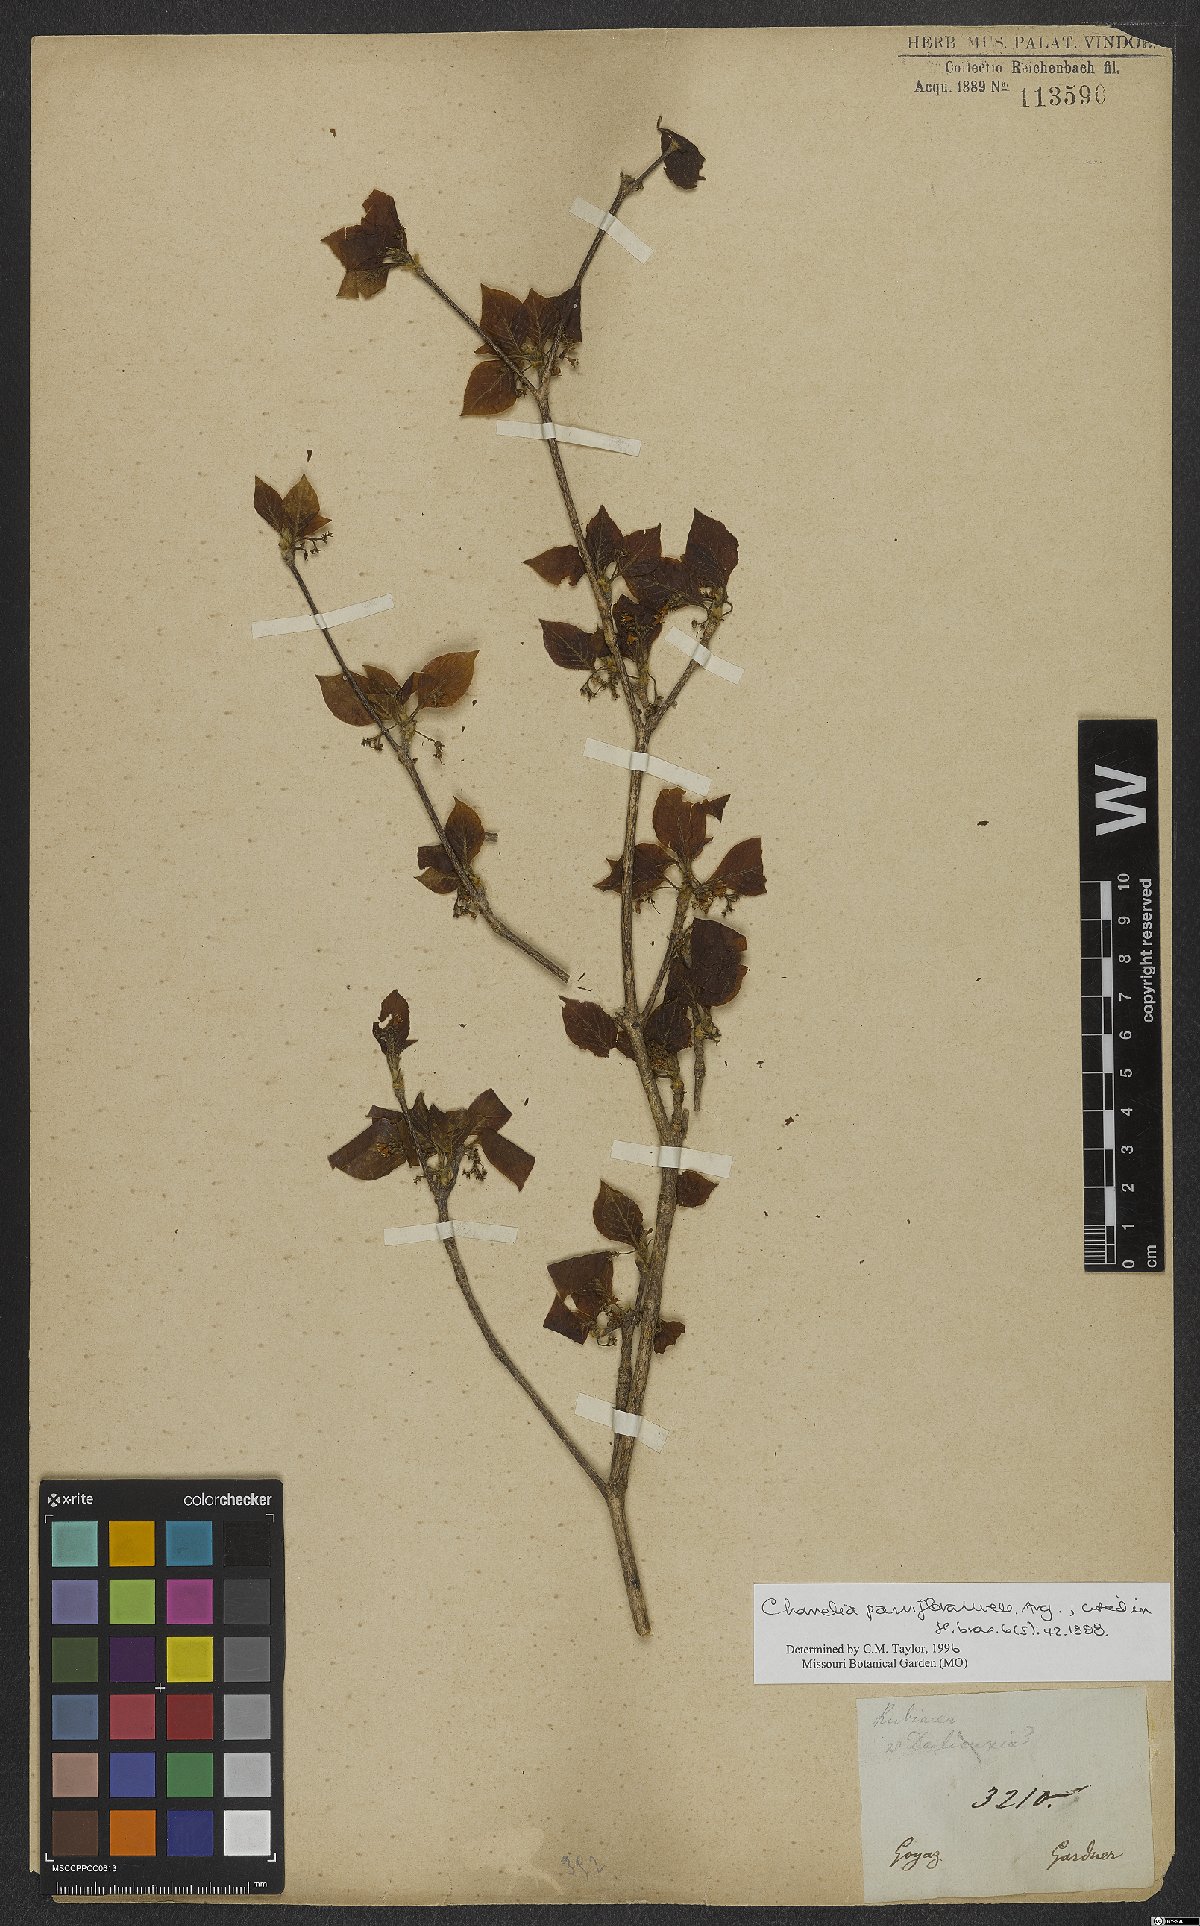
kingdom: Plantae
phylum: Tracheophyta
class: Magnoliopsida
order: Gentianales
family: Rubiaceae
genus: Chomelia
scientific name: Chomelia parviflora
